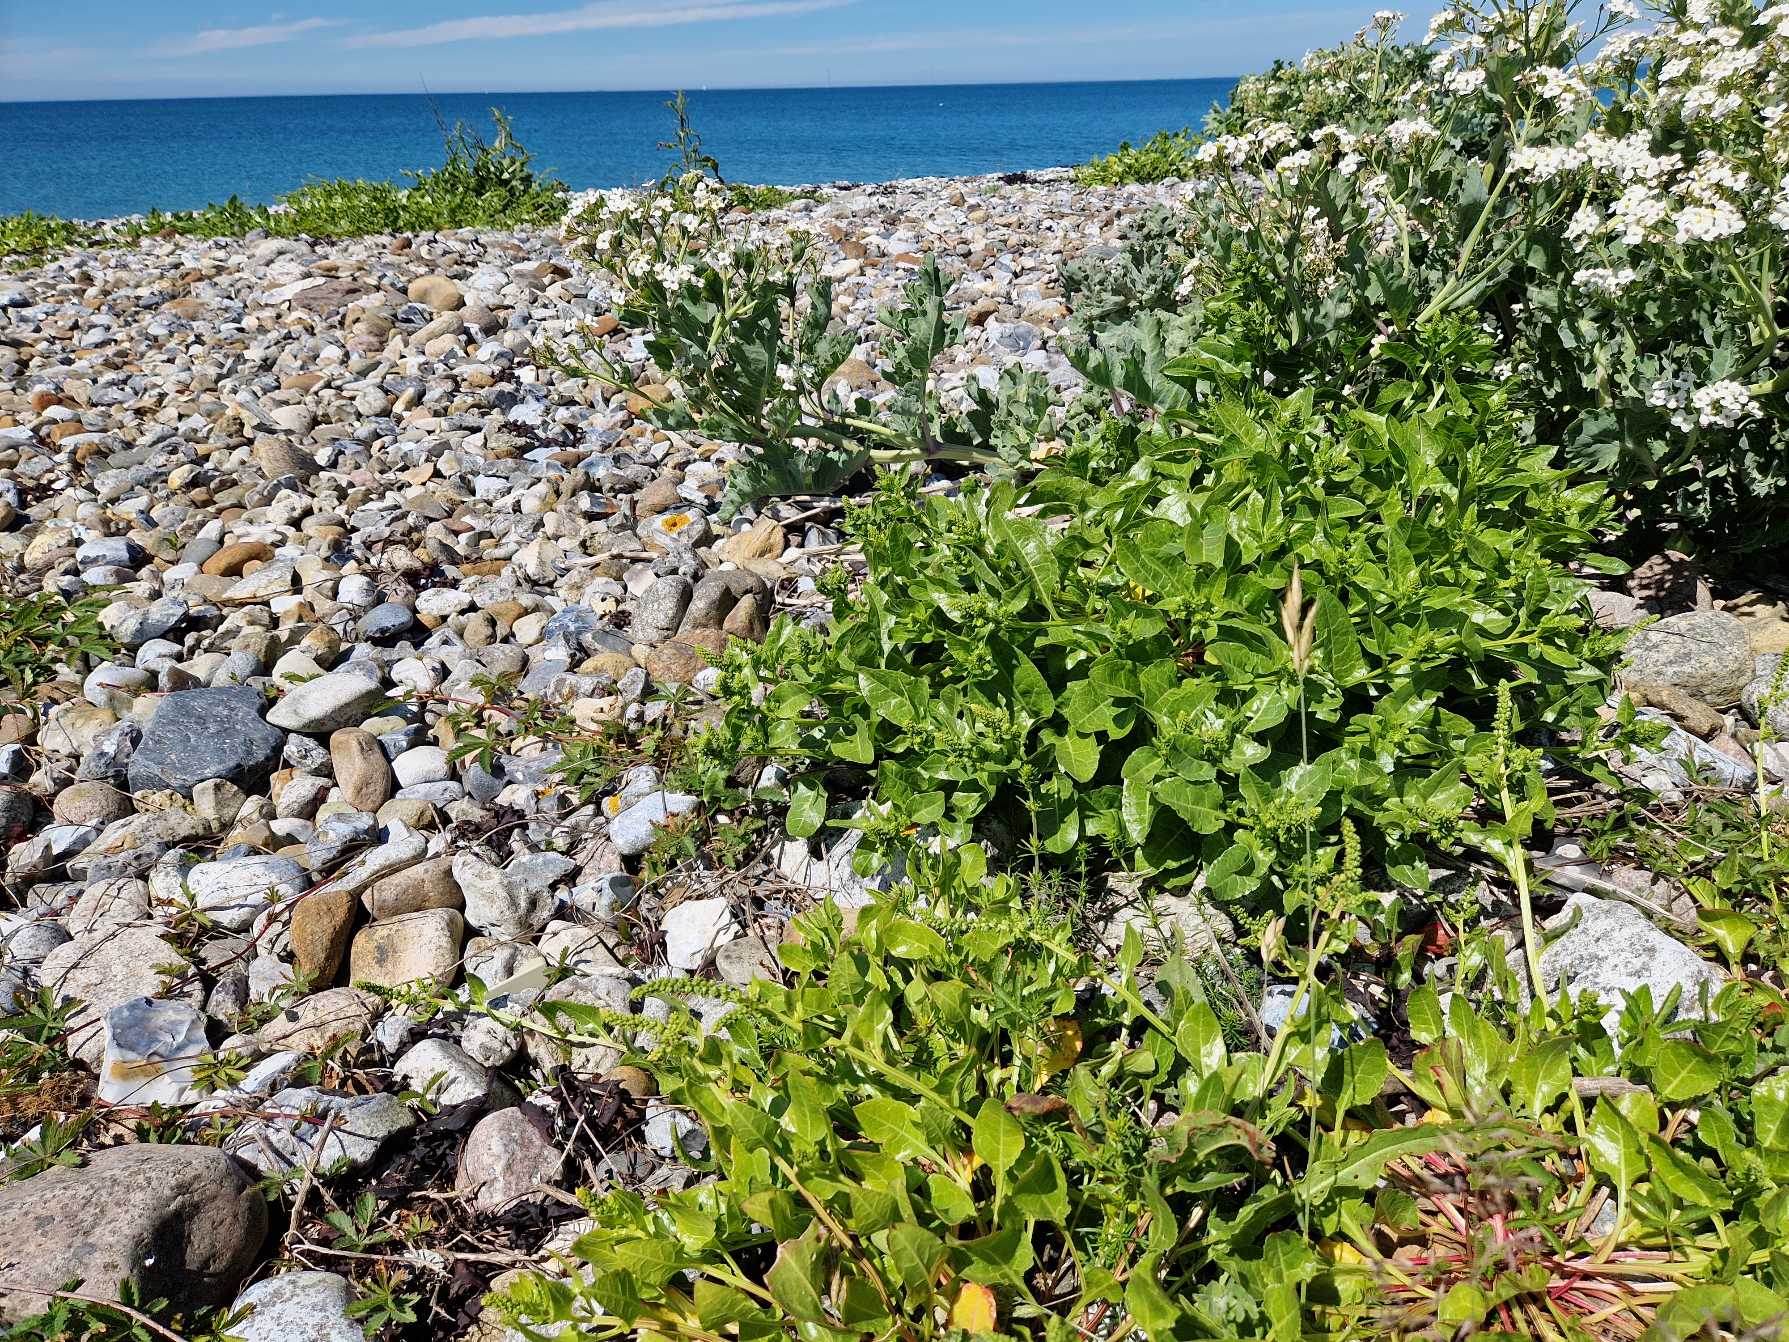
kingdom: Plantae
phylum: Tracheophyta
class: Magnoliopsida
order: Caryophyllales
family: Amaranthaceae
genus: Beta
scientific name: Beta maritima
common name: Strand-bede
